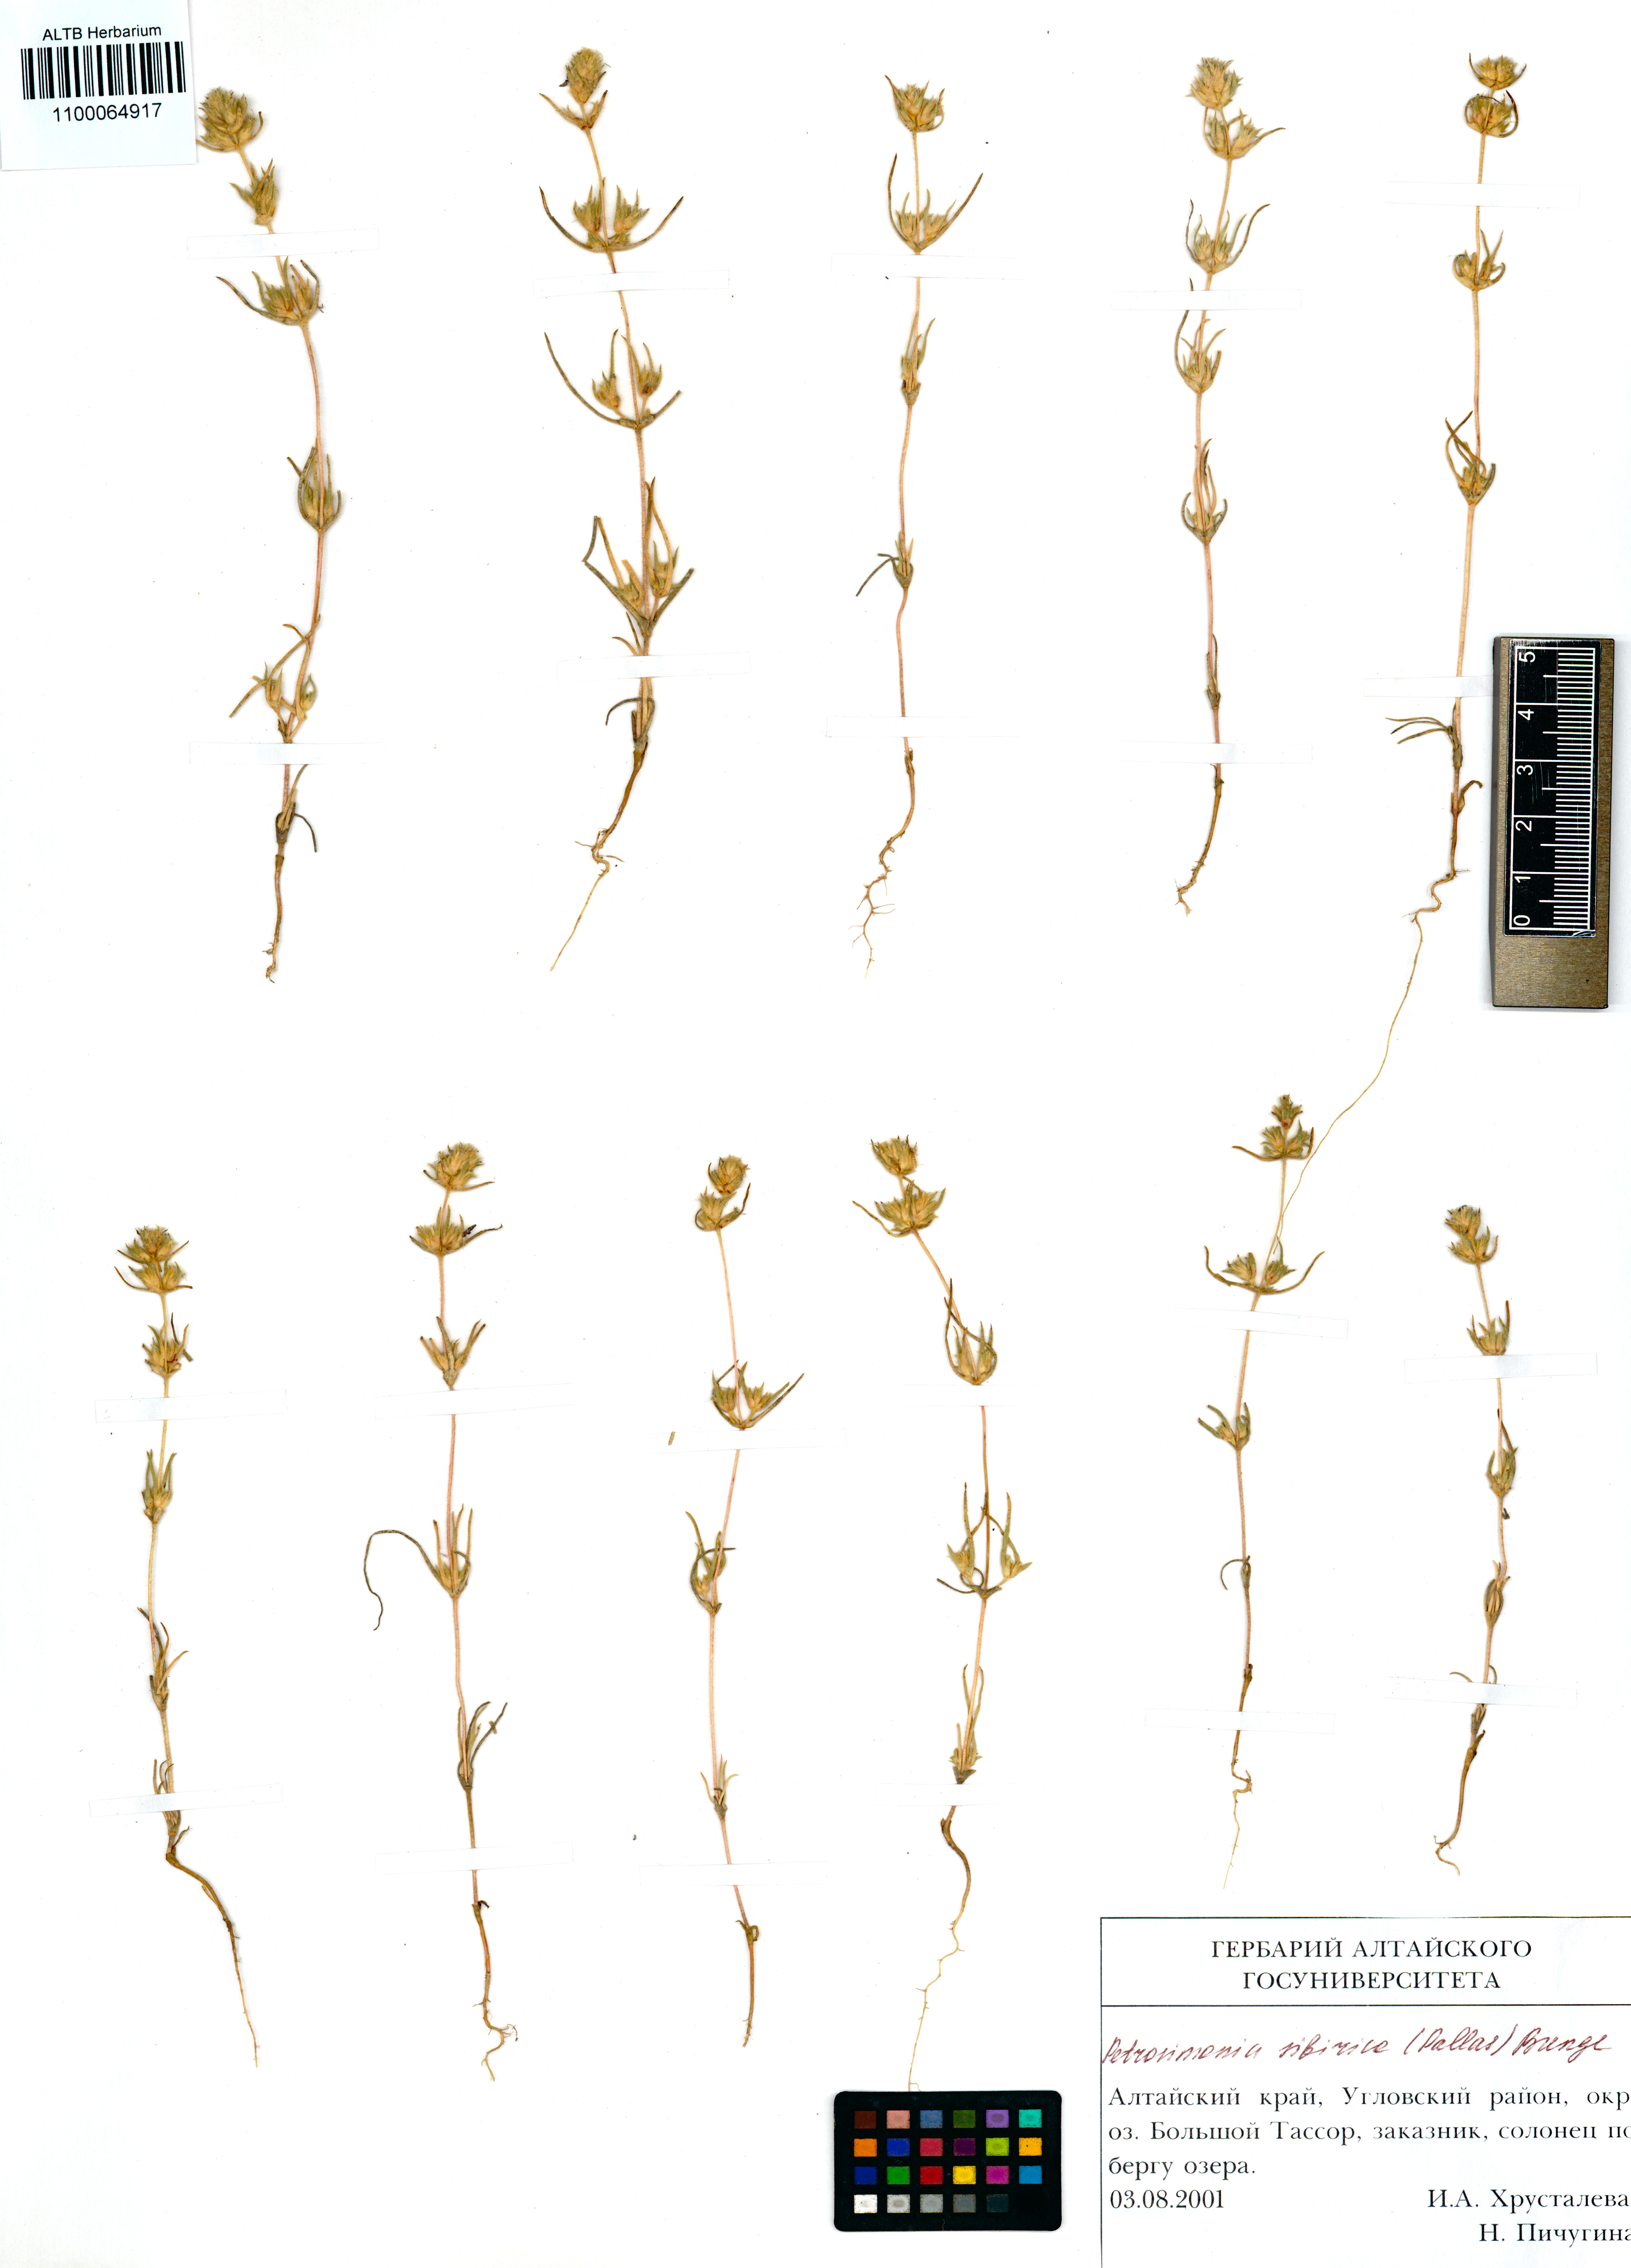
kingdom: Plantae
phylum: Tracheophyta
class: Magnoliopsida
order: Caryophyllales
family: Amaranthaceae
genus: Petrosimonia
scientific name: Petrosimonia sibirica
